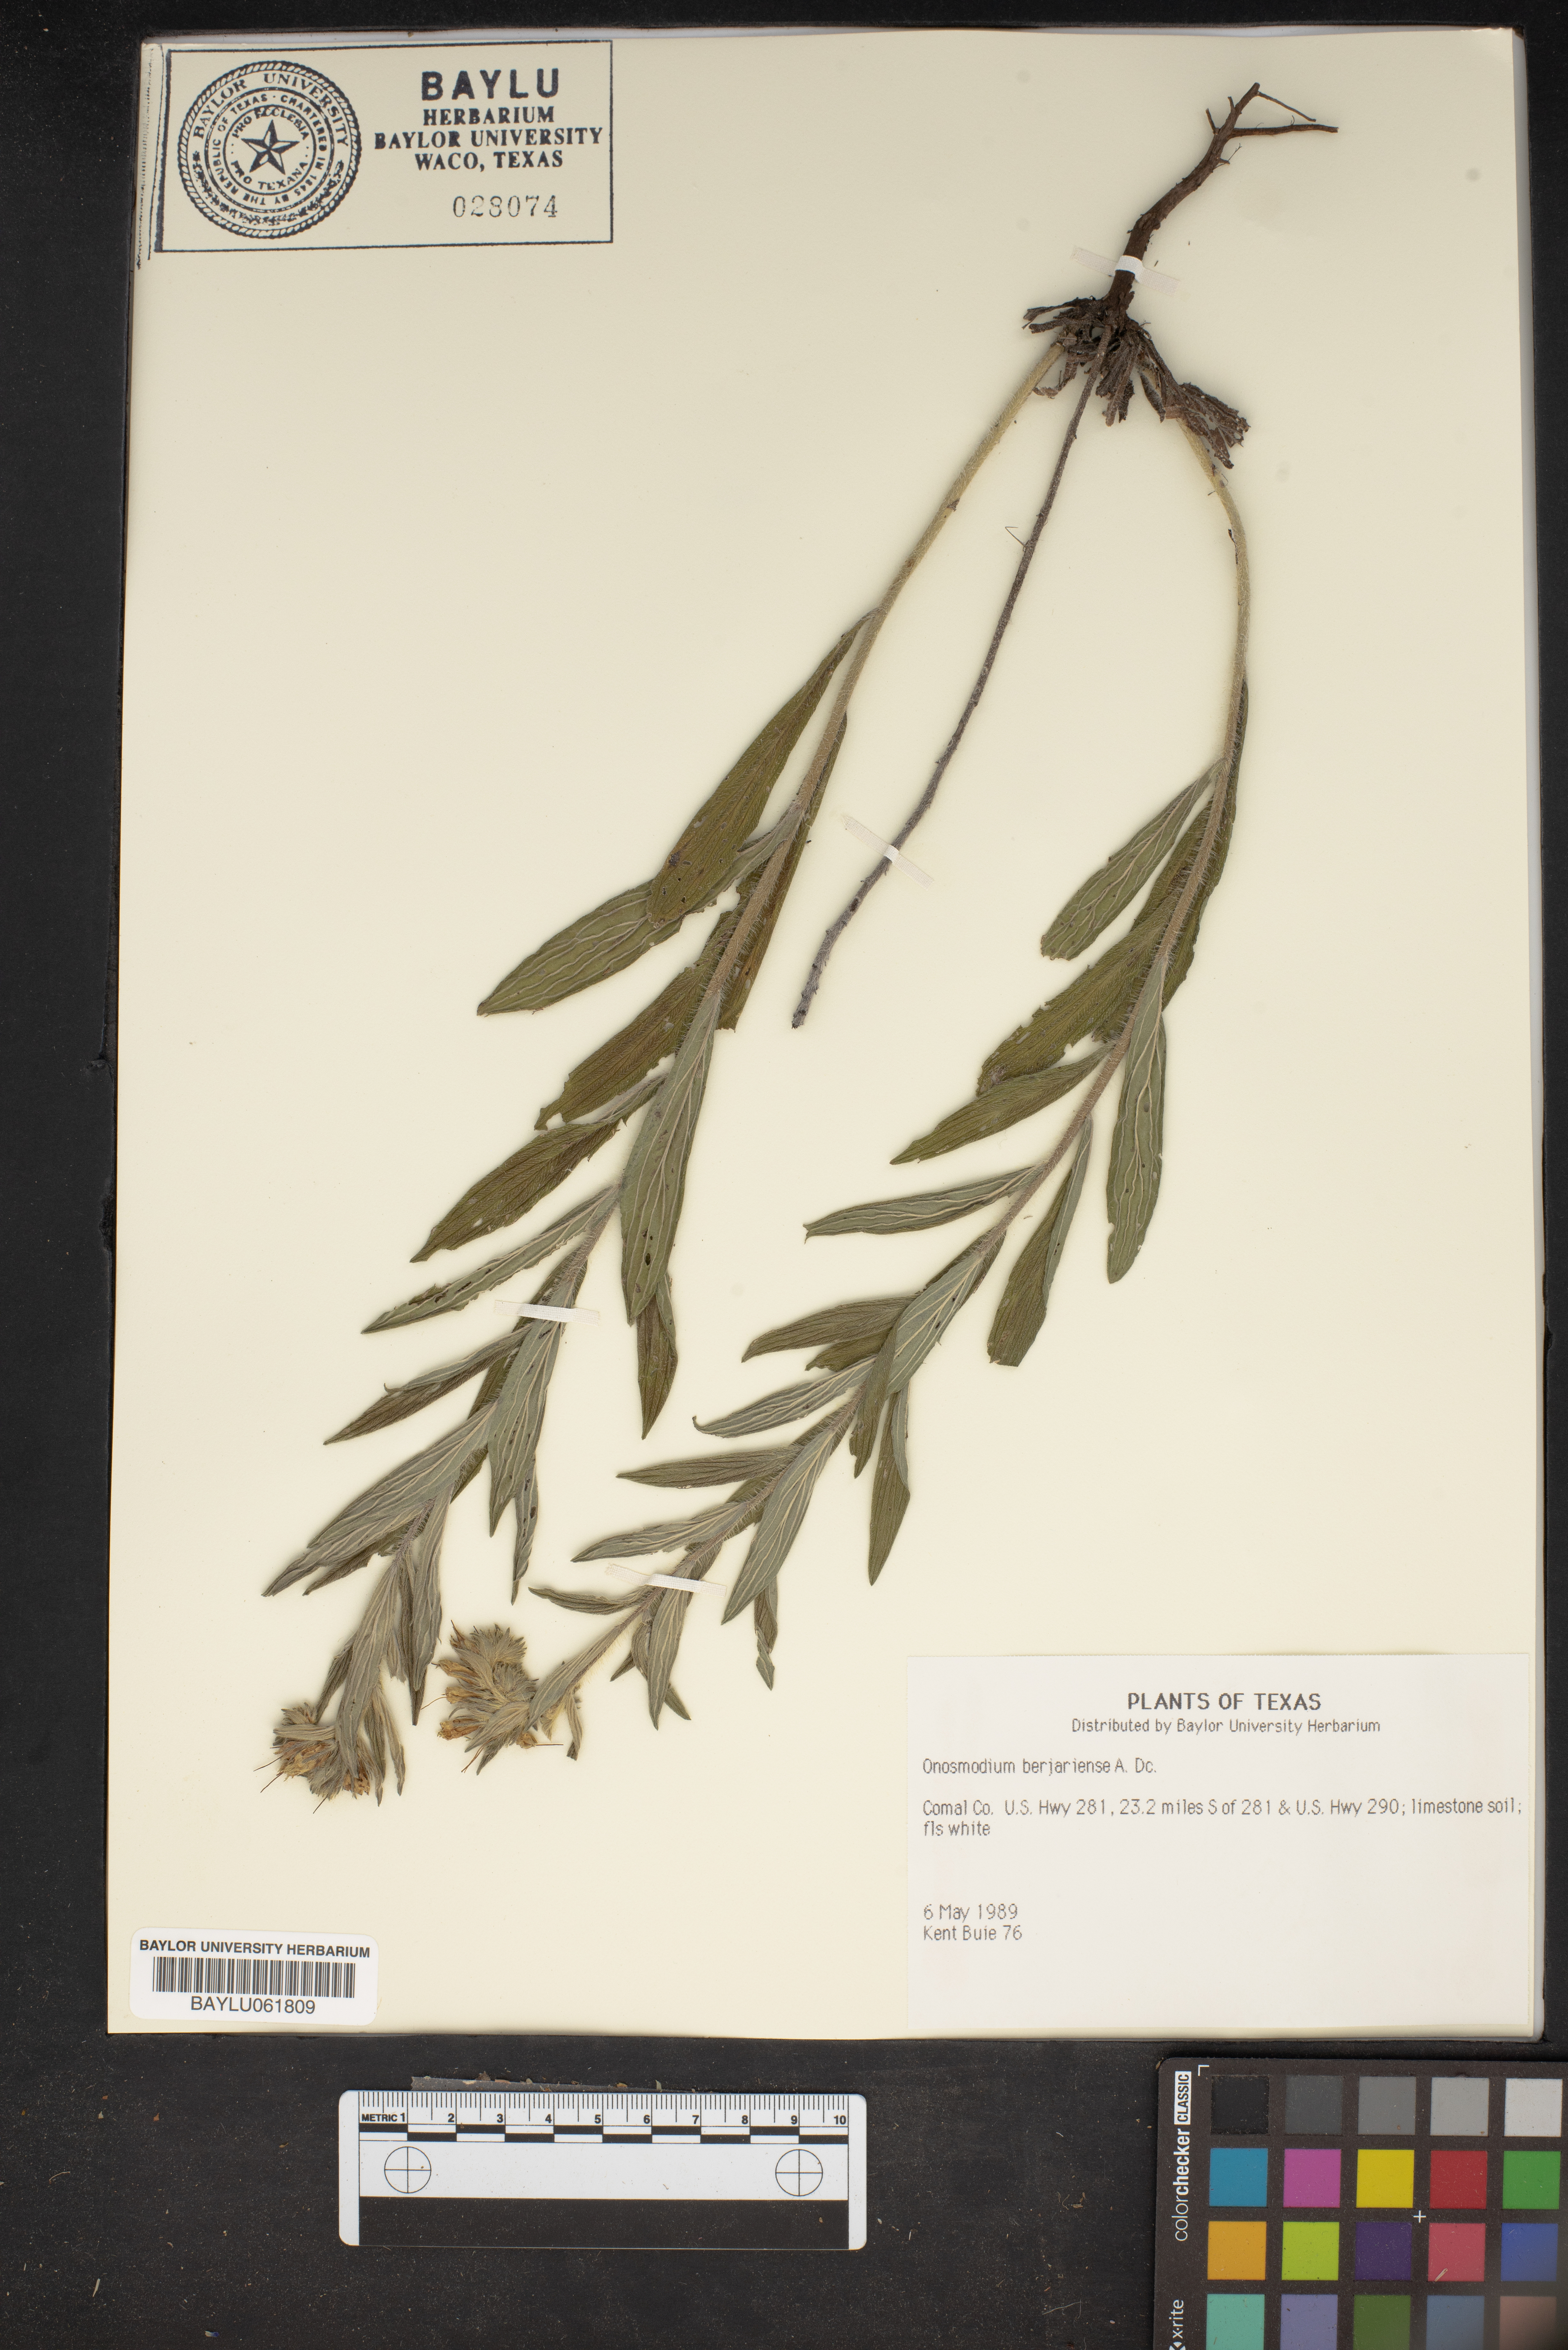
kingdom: Plantae
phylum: Tracheophyta
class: Magnoliopsida
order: Boraginales
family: Boraginaceae
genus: Lithospermum
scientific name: Lithospermum molle
